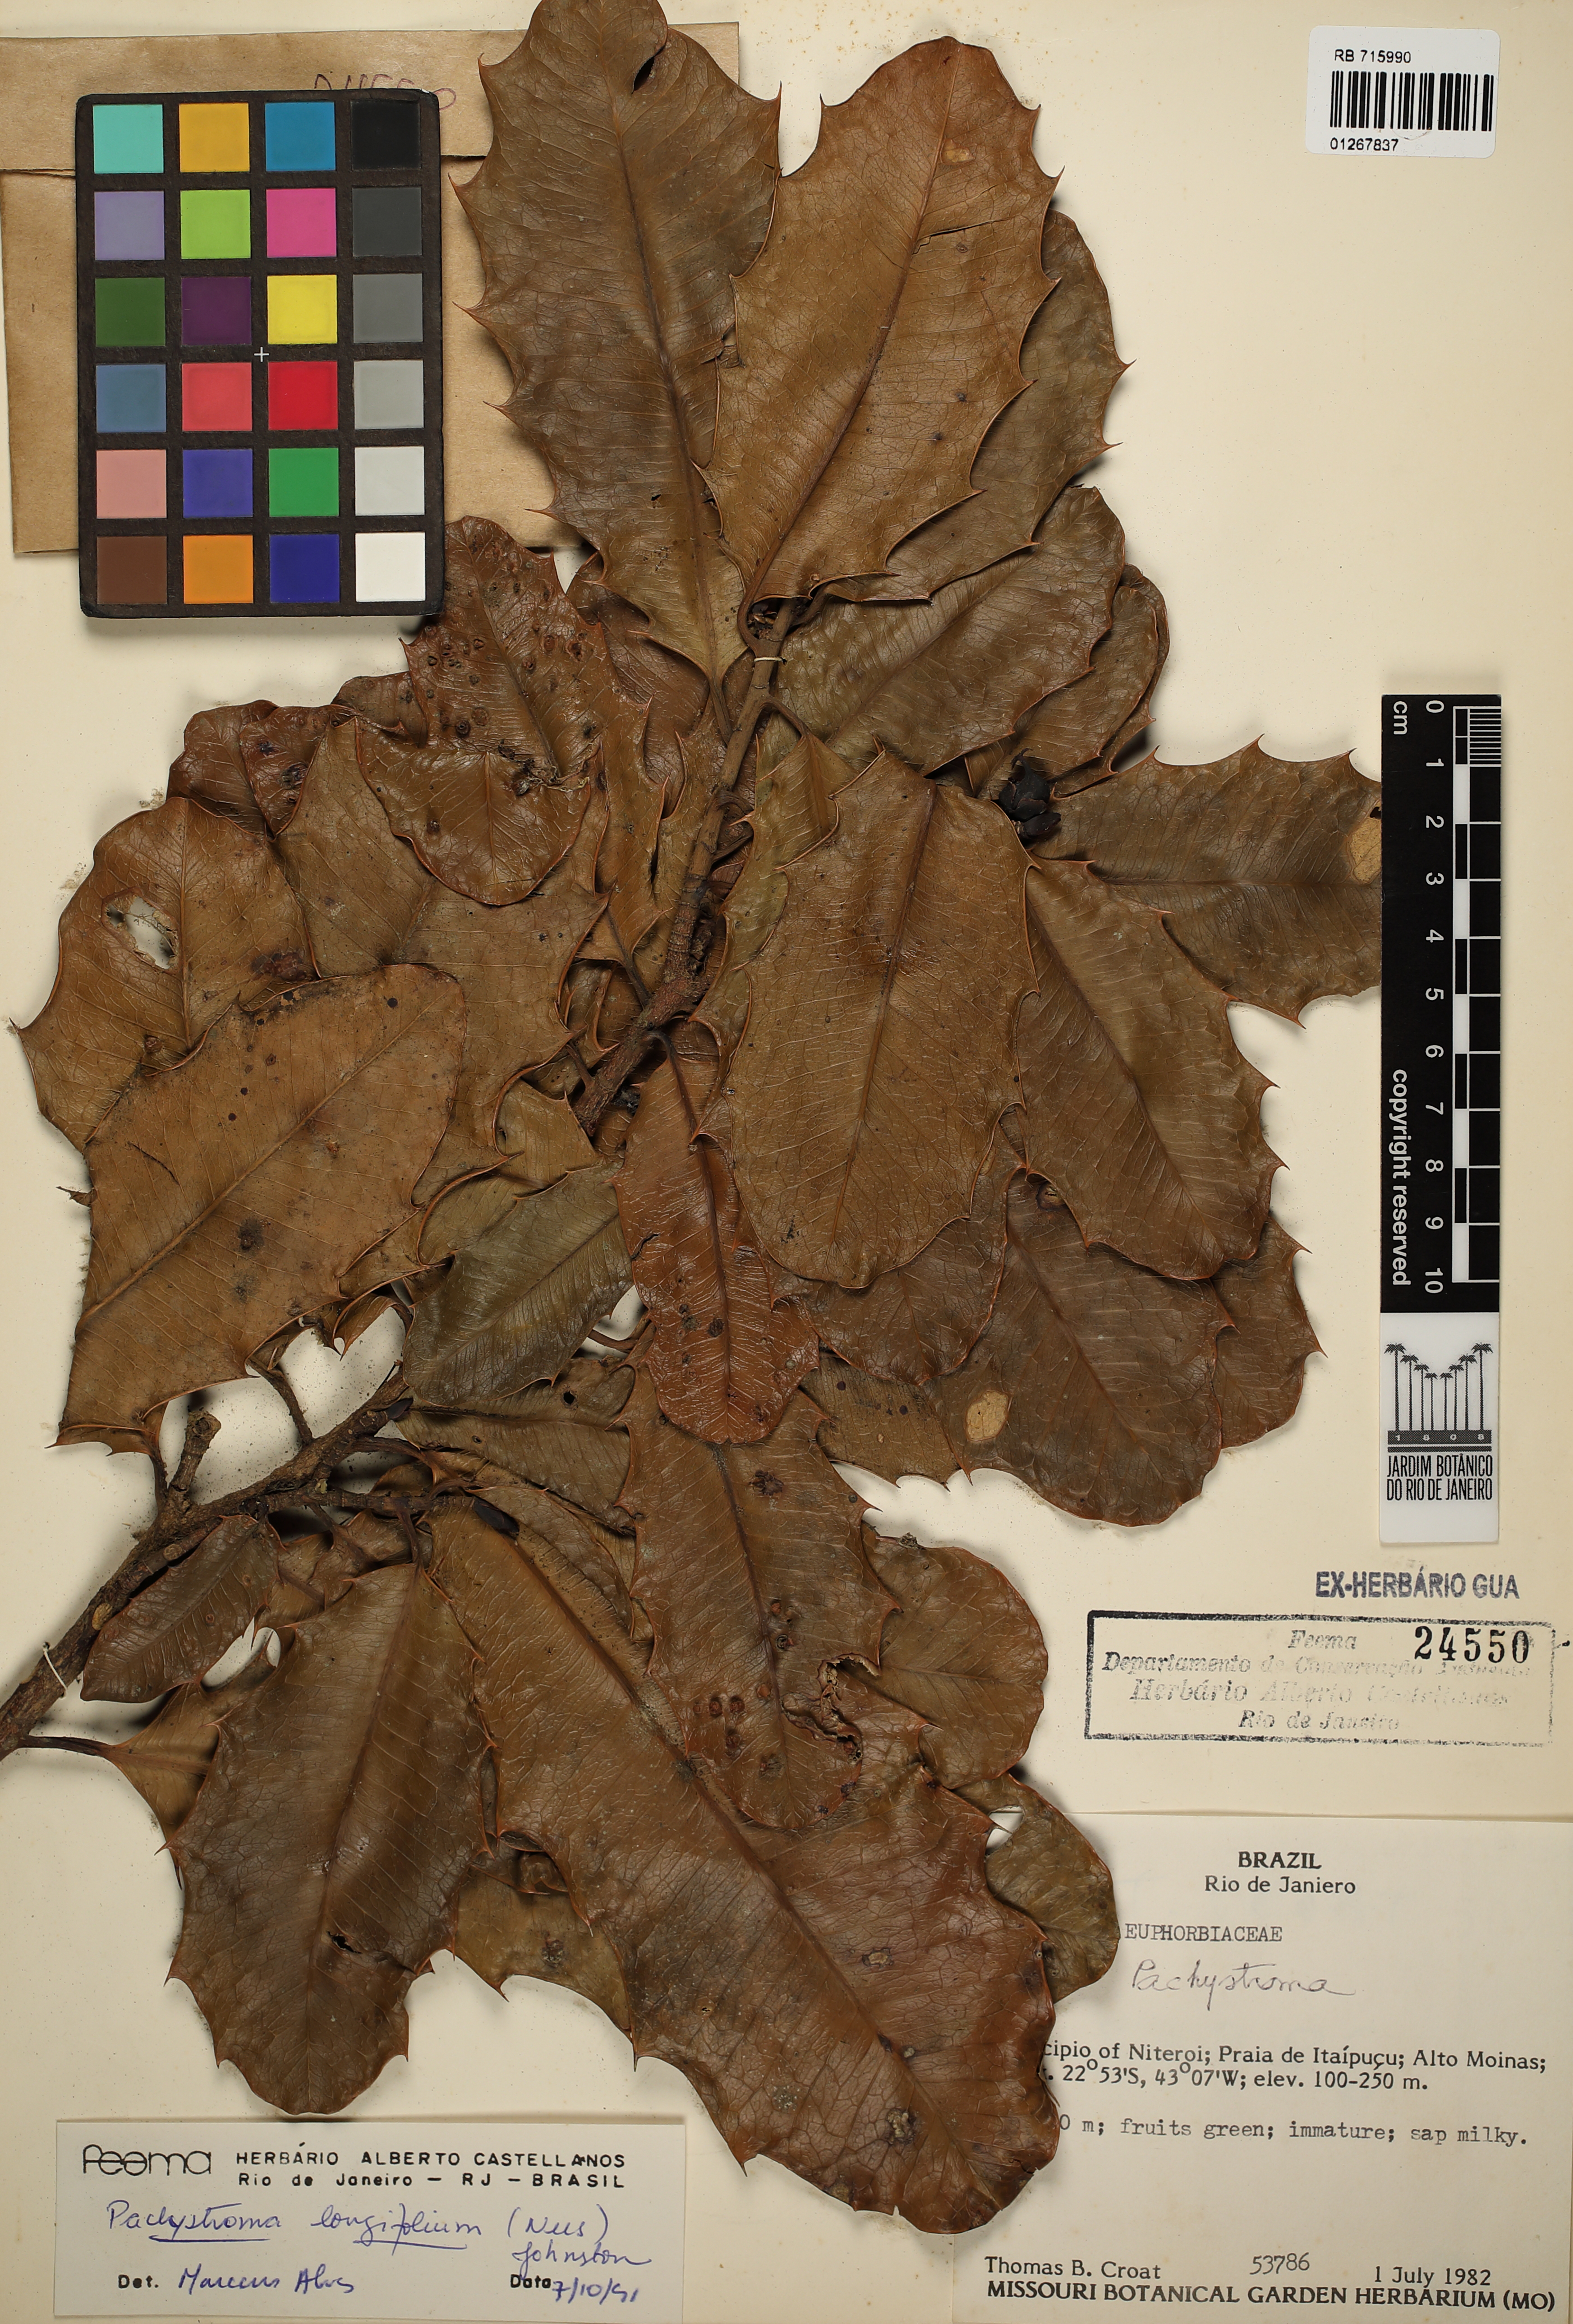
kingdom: Plantae
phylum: Tracheophyta
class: Magnoliopsida
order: Malpighiales
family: Euphorbiaceae
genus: Pachystroma
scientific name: Pachystroma longifolium
